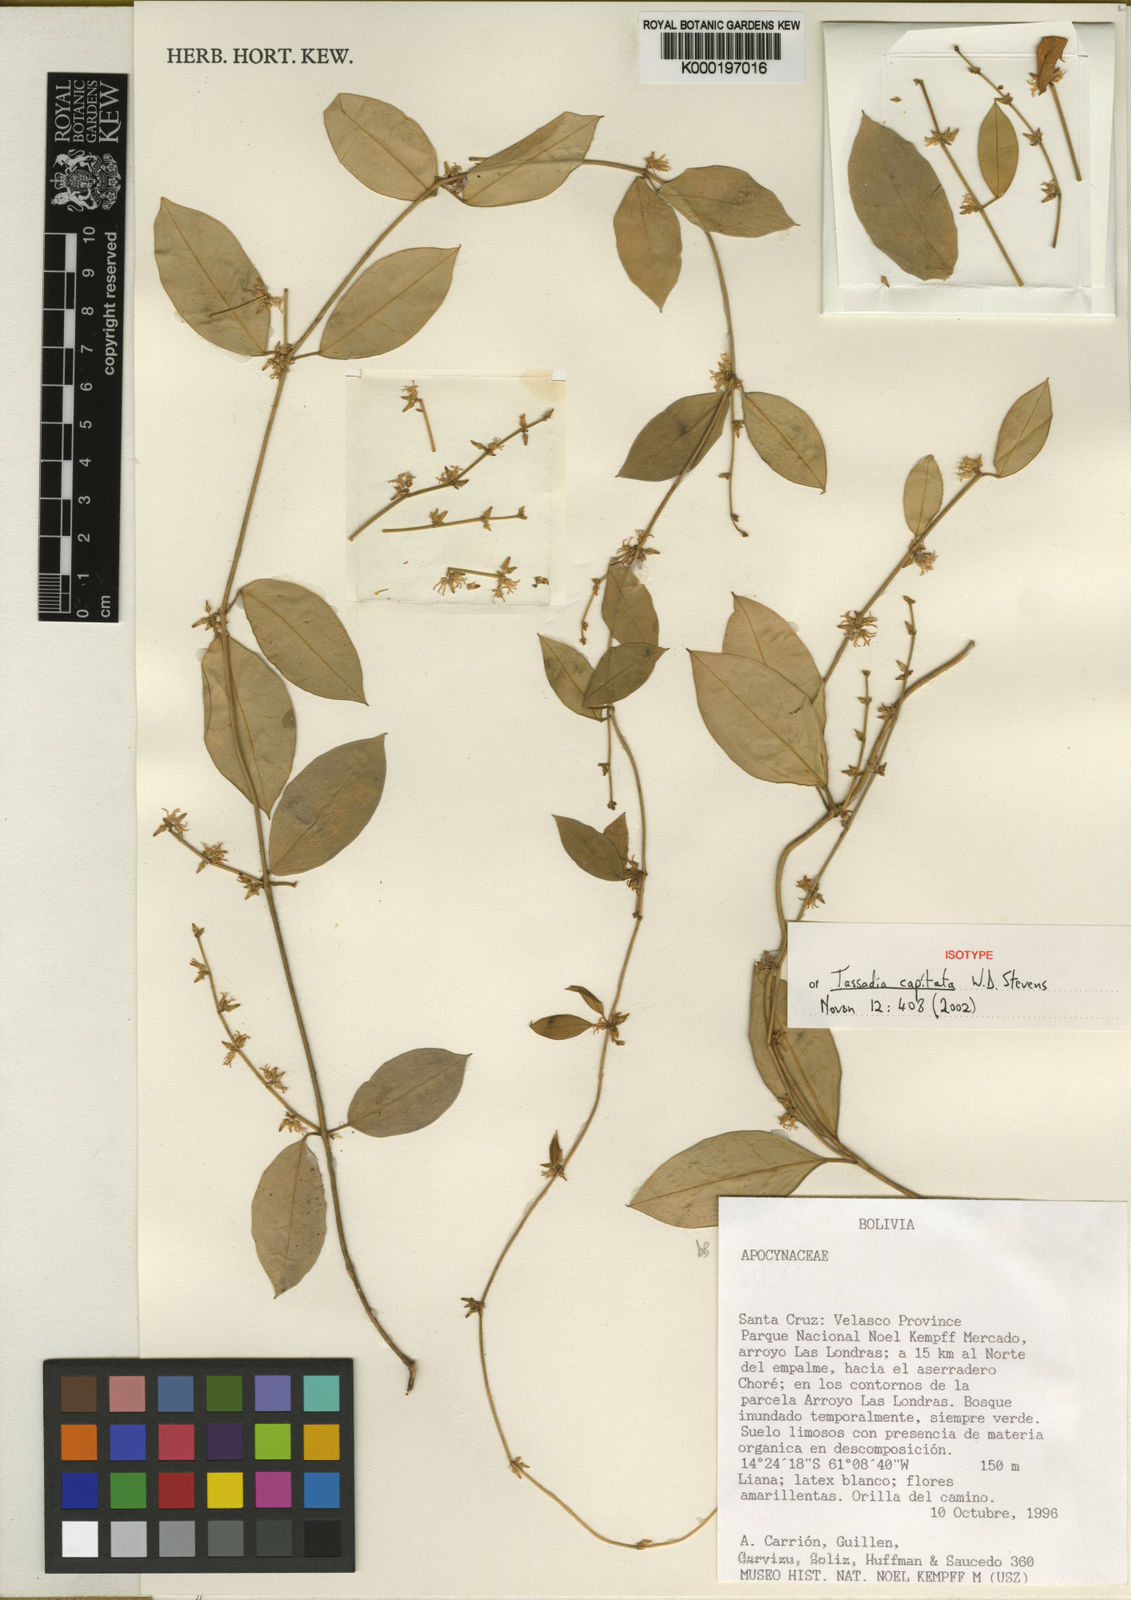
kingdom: Plantae
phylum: Tracheophyta
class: Magnoliopsida
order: Gentianales
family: Apocynaceae
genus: Tassadia
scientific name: Tassadia capitata
